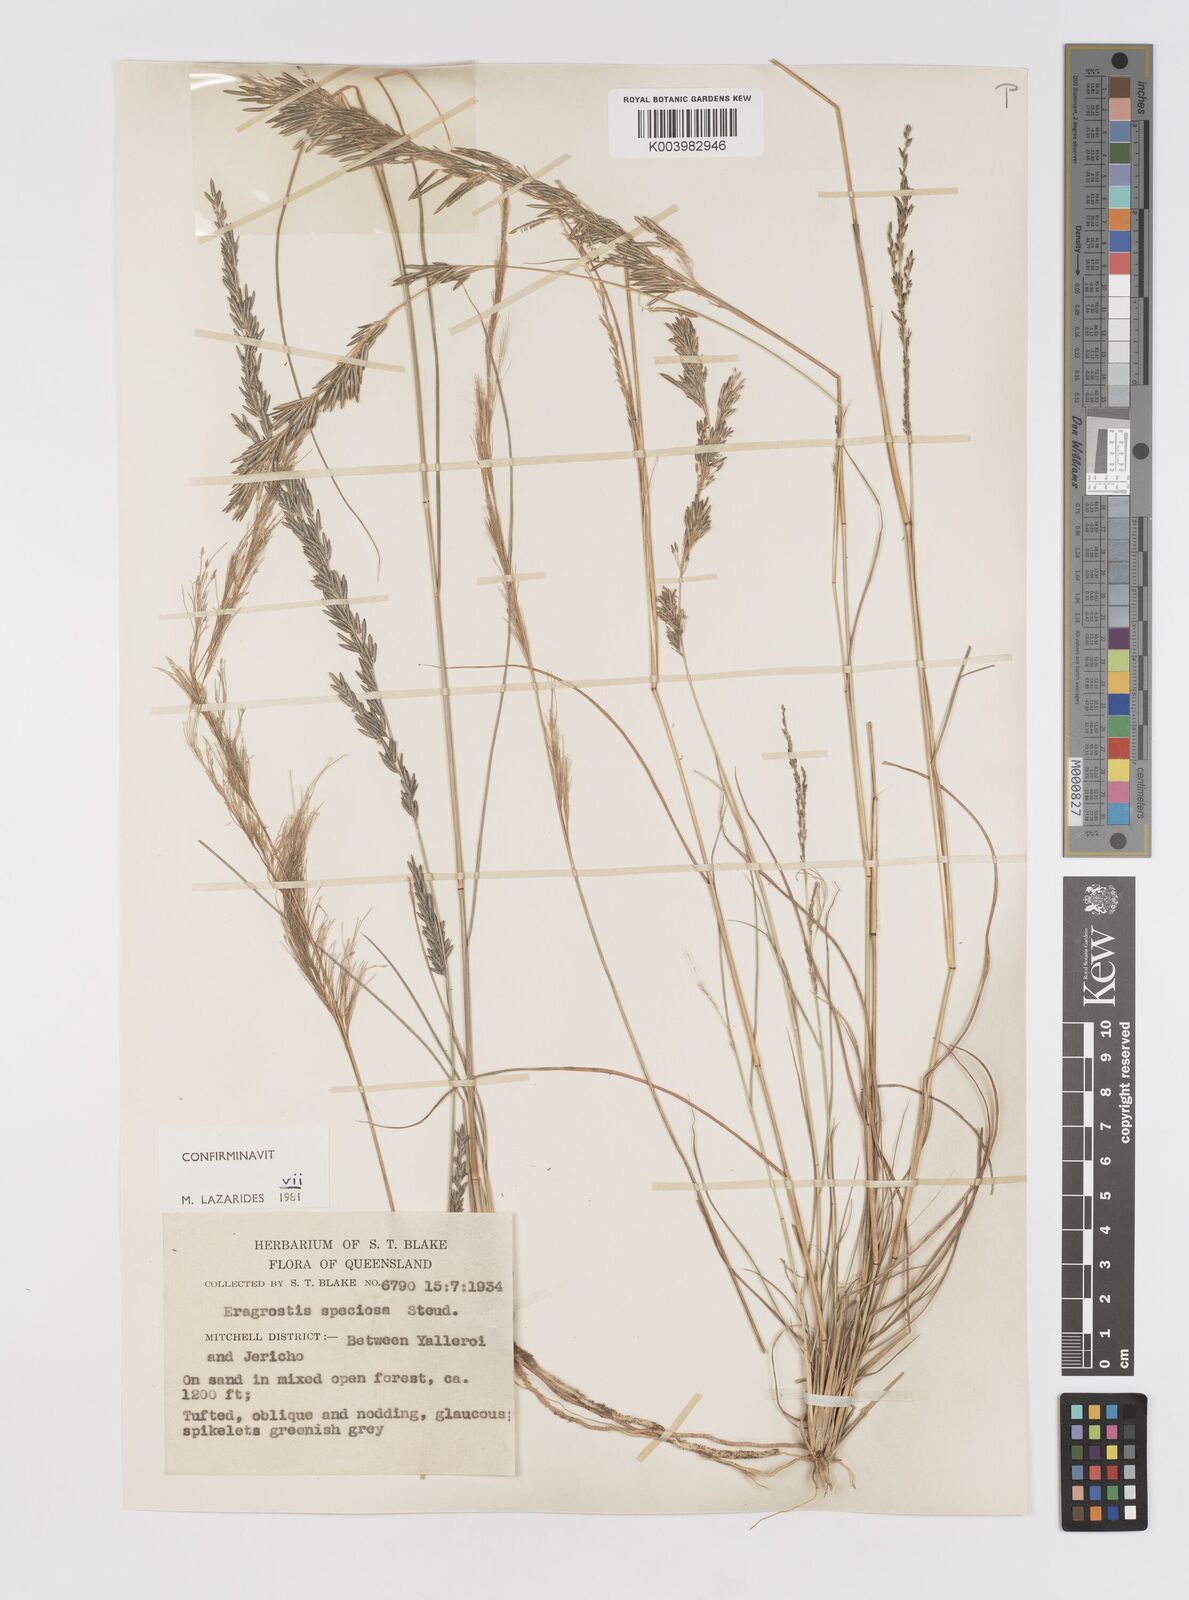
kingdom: Plantae
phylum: Tracheophyta
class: Liliopsida
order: Poales
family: Poaceae
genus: Eragrostis
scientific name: Eragrostis speciosa
